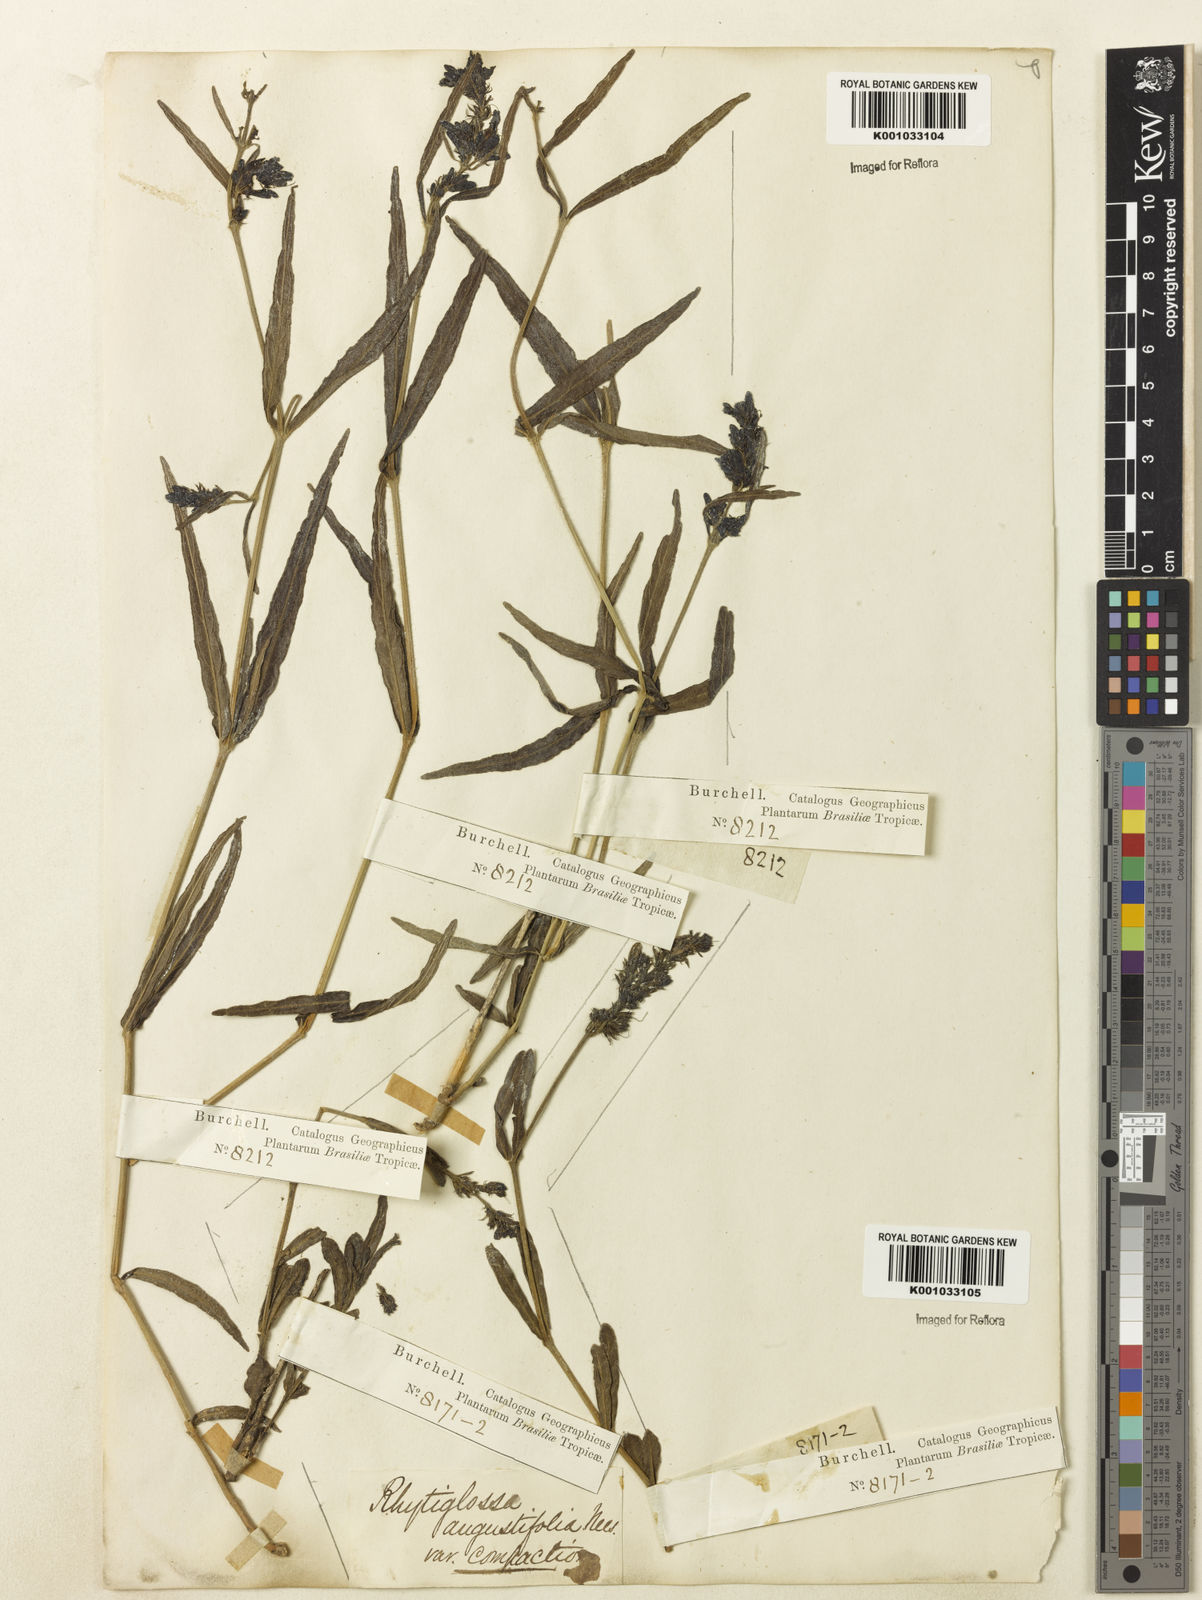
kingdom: Plantae
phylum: Tracheophyta
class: Magnoliopsida
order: Lamiales
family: Acanthaceae
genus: Dianthera
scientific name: Dianthera angustifolia
